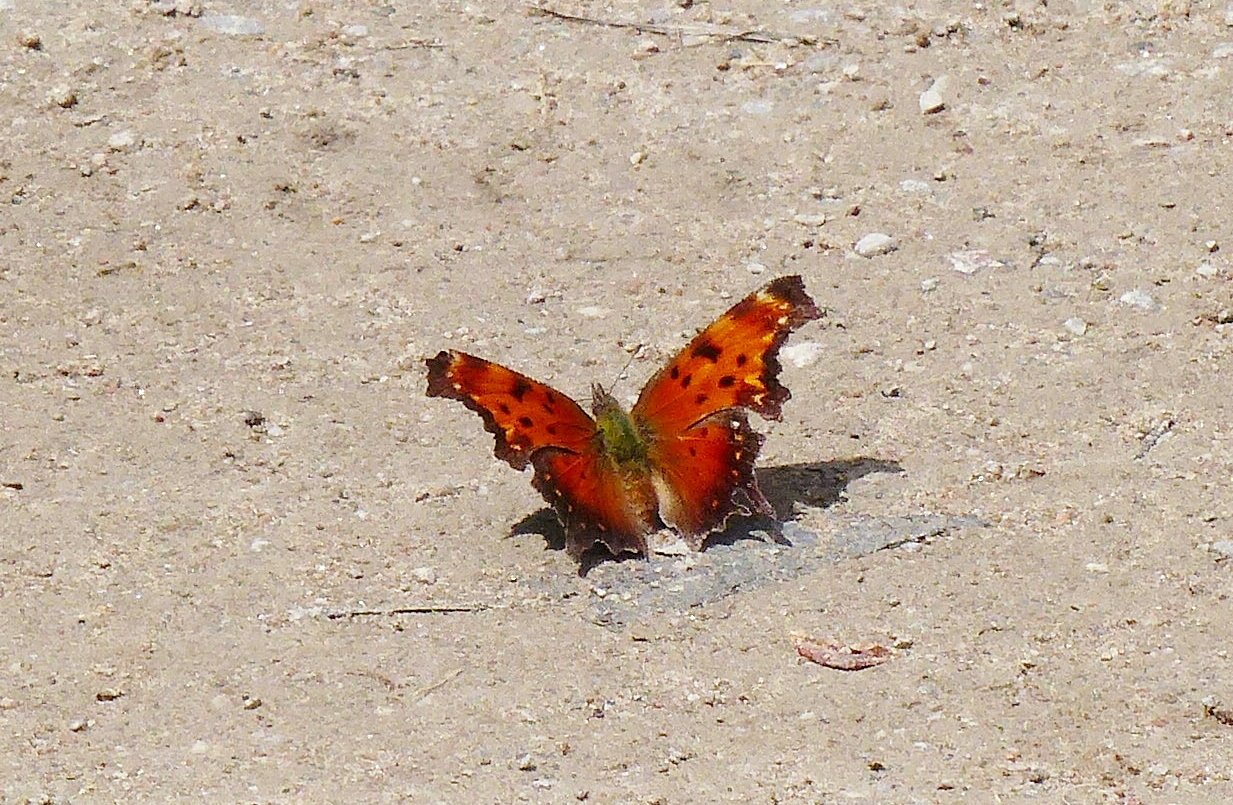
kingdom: Animalia
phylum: Arthropoda
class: Insecta
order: Lepidoptera
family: Nymphalidae
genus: Polygonia
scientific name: Polygonia progne
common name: Gray Comma
